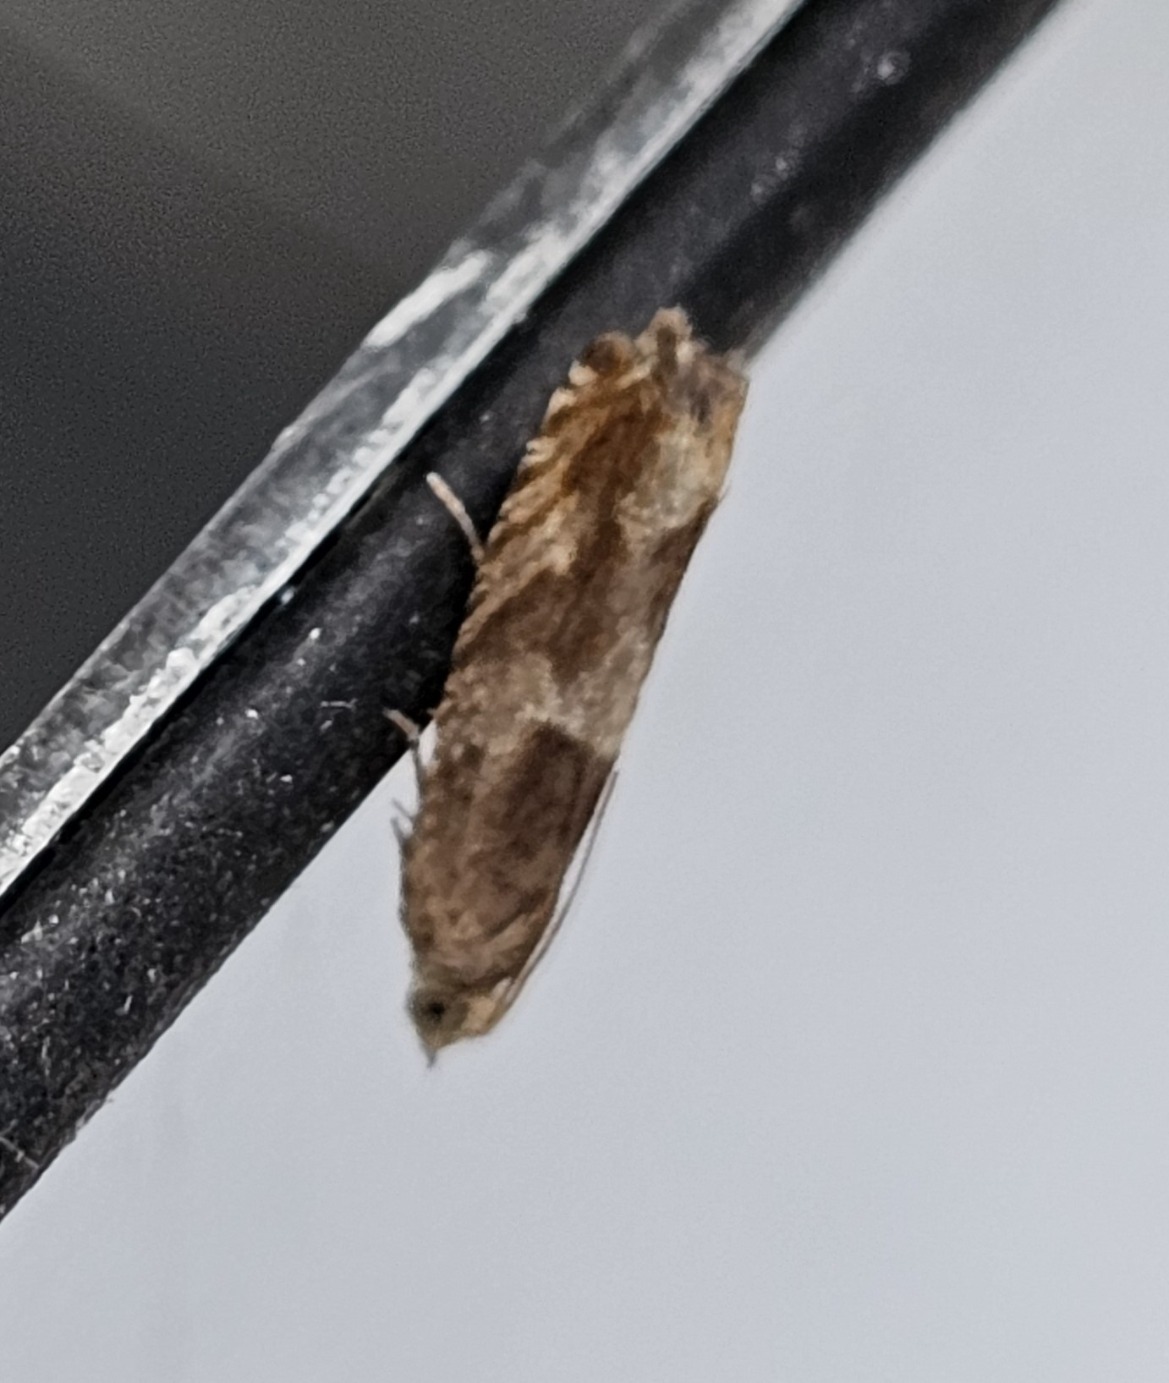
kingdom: Animalia
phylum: Arthropoda
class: Insecta
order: Lepidoptera
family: Tortricidae
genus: Epinotia
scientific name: Epinotia tenerana
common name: Hasselknopvikler
